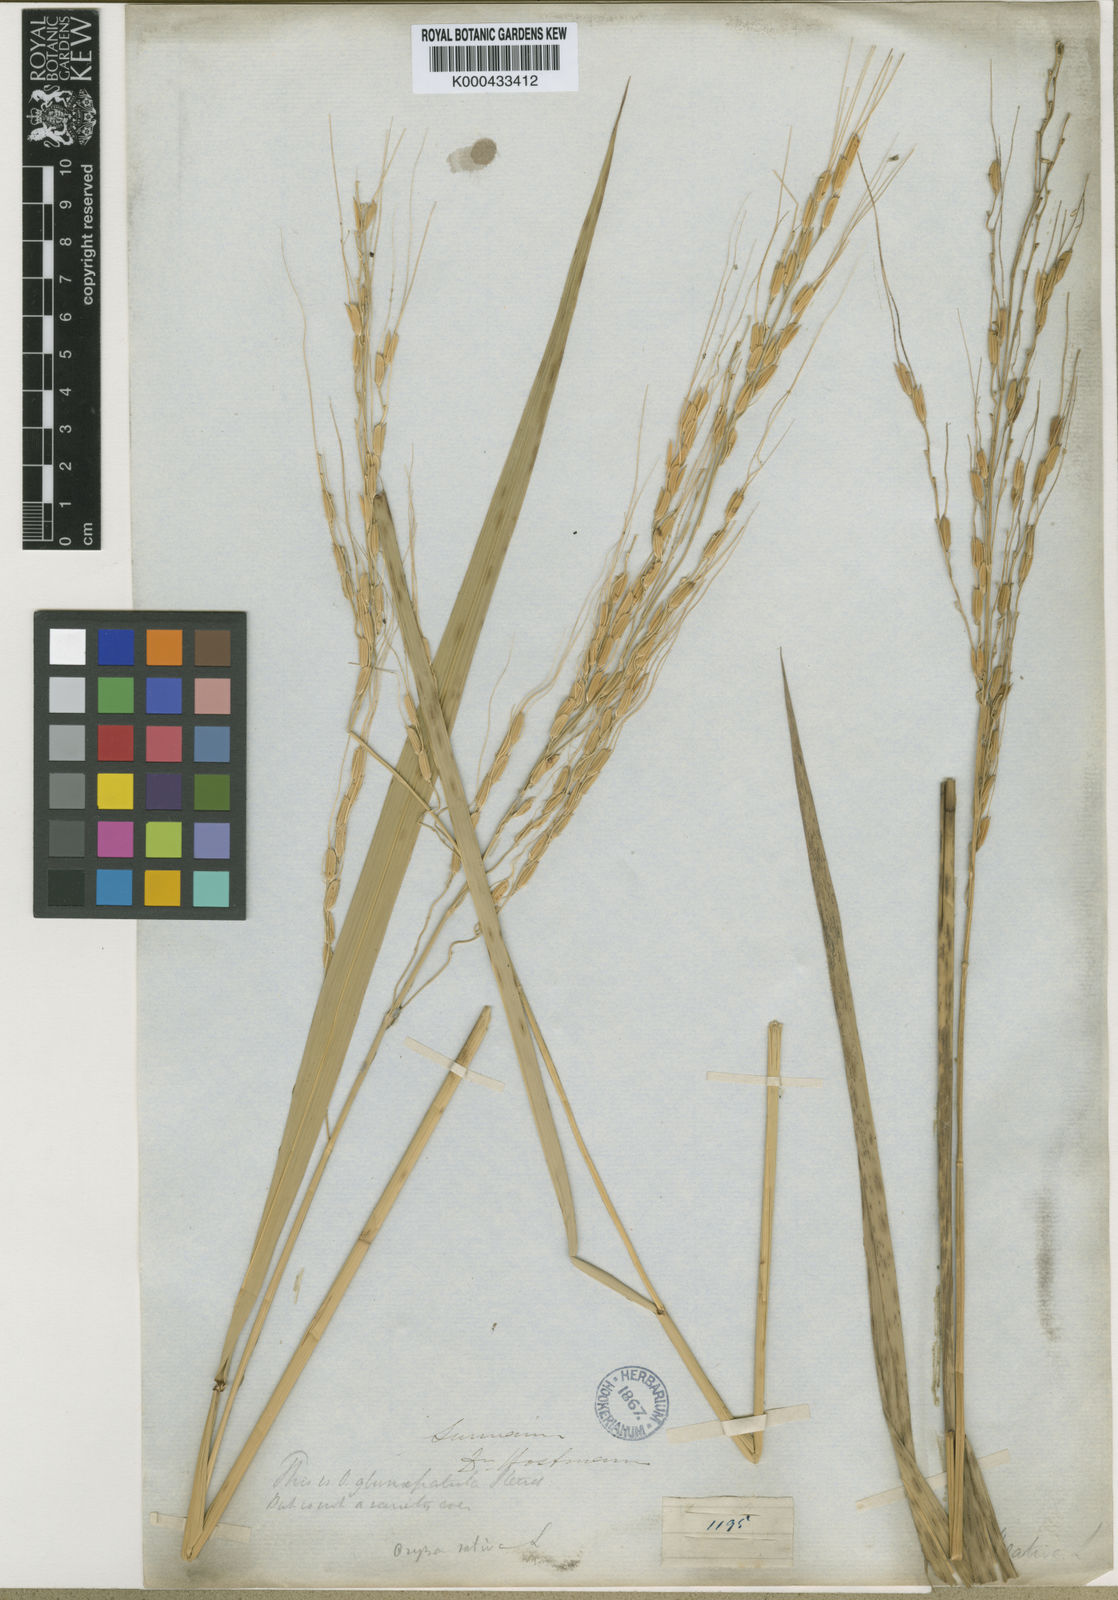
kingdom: Plantae
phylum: Tracheophyta
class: Liliopsida
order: Poales
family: Poaceae
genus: Oryza
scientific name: Oryza rufipogon
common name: Red rice
